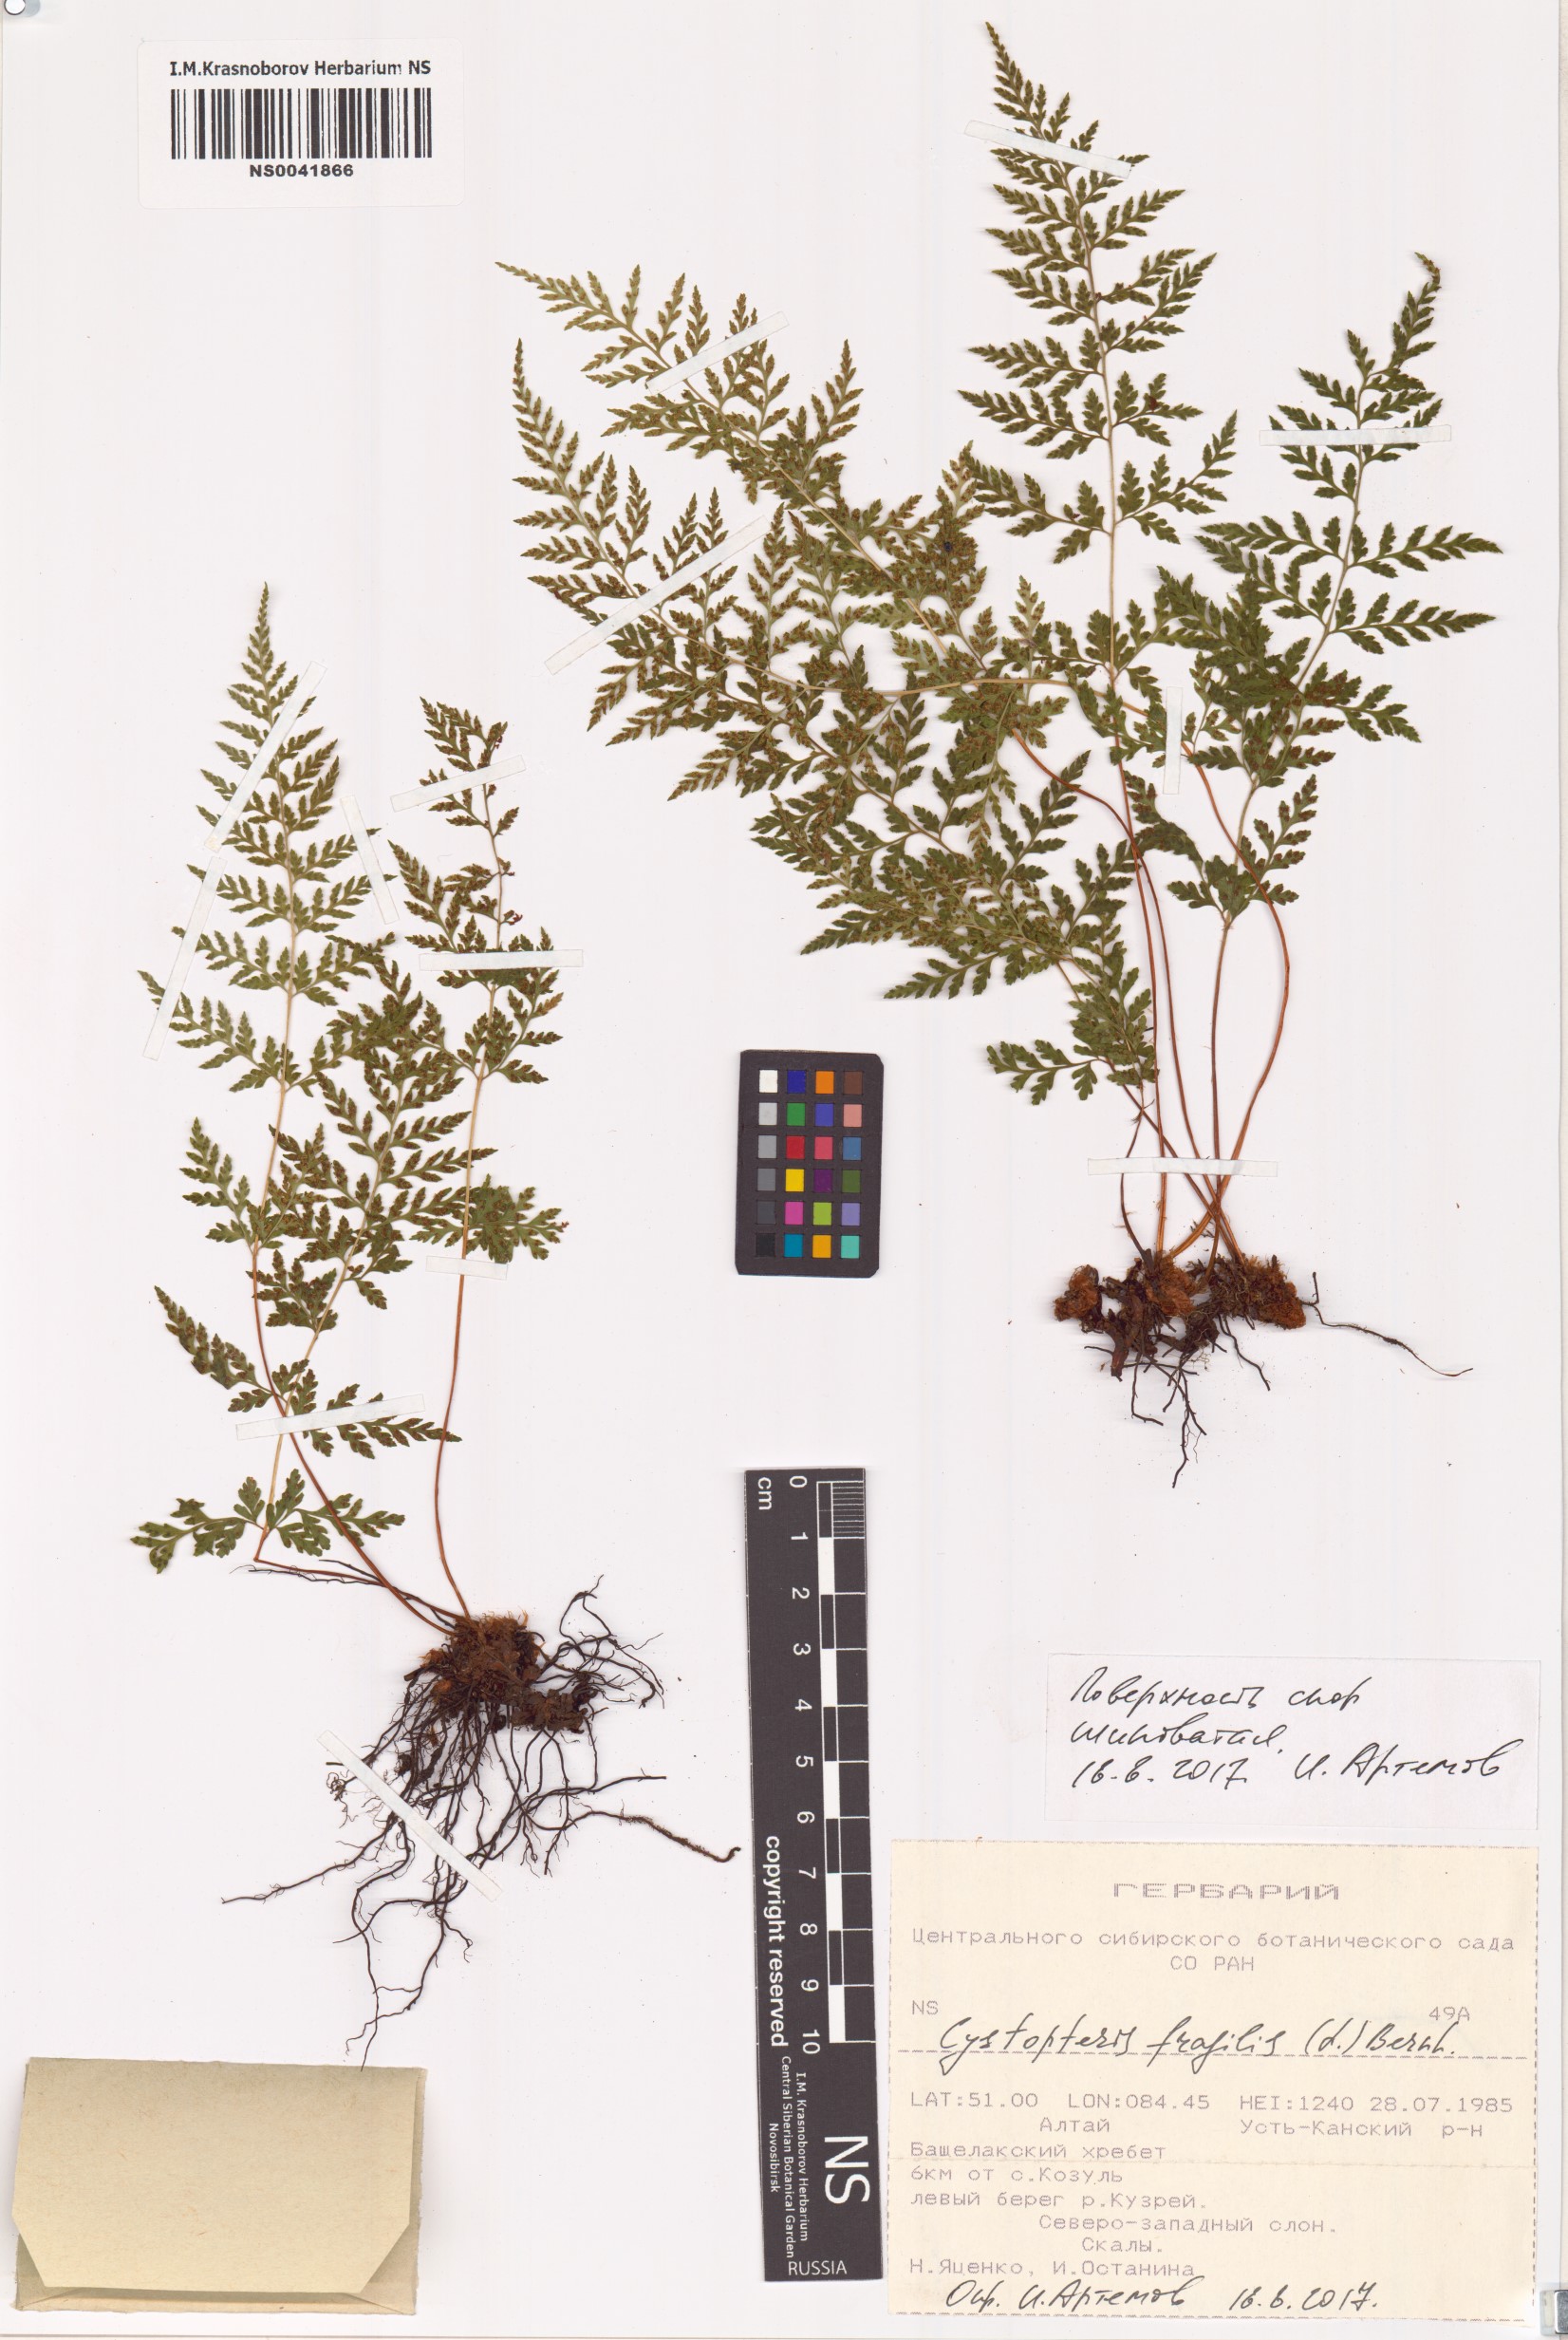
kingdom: Plantae
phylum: Tracheophyta
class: Polypodiopsida
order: Polypodiales
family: Cystopteridaceae
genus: Cystopteris
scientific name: Cystopteris fragilis
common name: Brittle bladder fern
